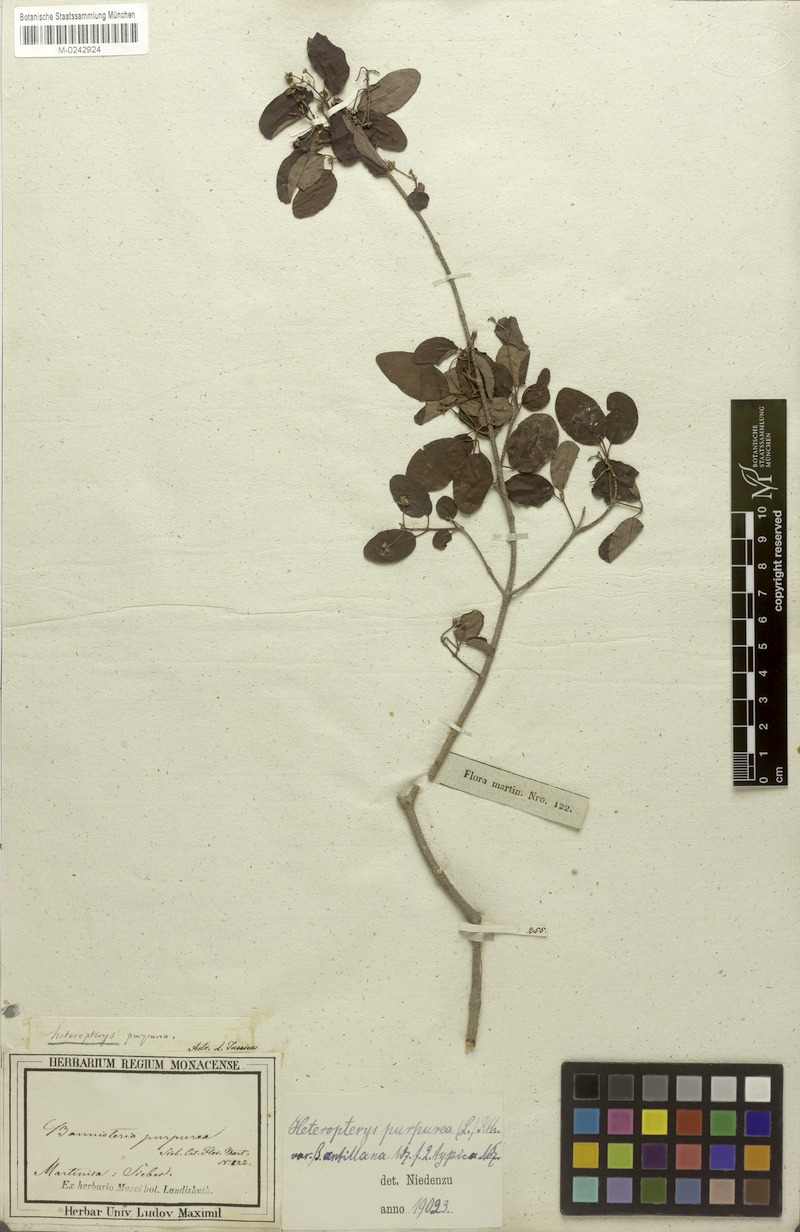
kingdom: Plantae
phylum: Tracheophyta
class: Magnoliopsida
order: Malpighiales
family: Malpighiaceae
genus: Heteropterys
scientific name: Heteropterys purpurea
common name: Bull withe
